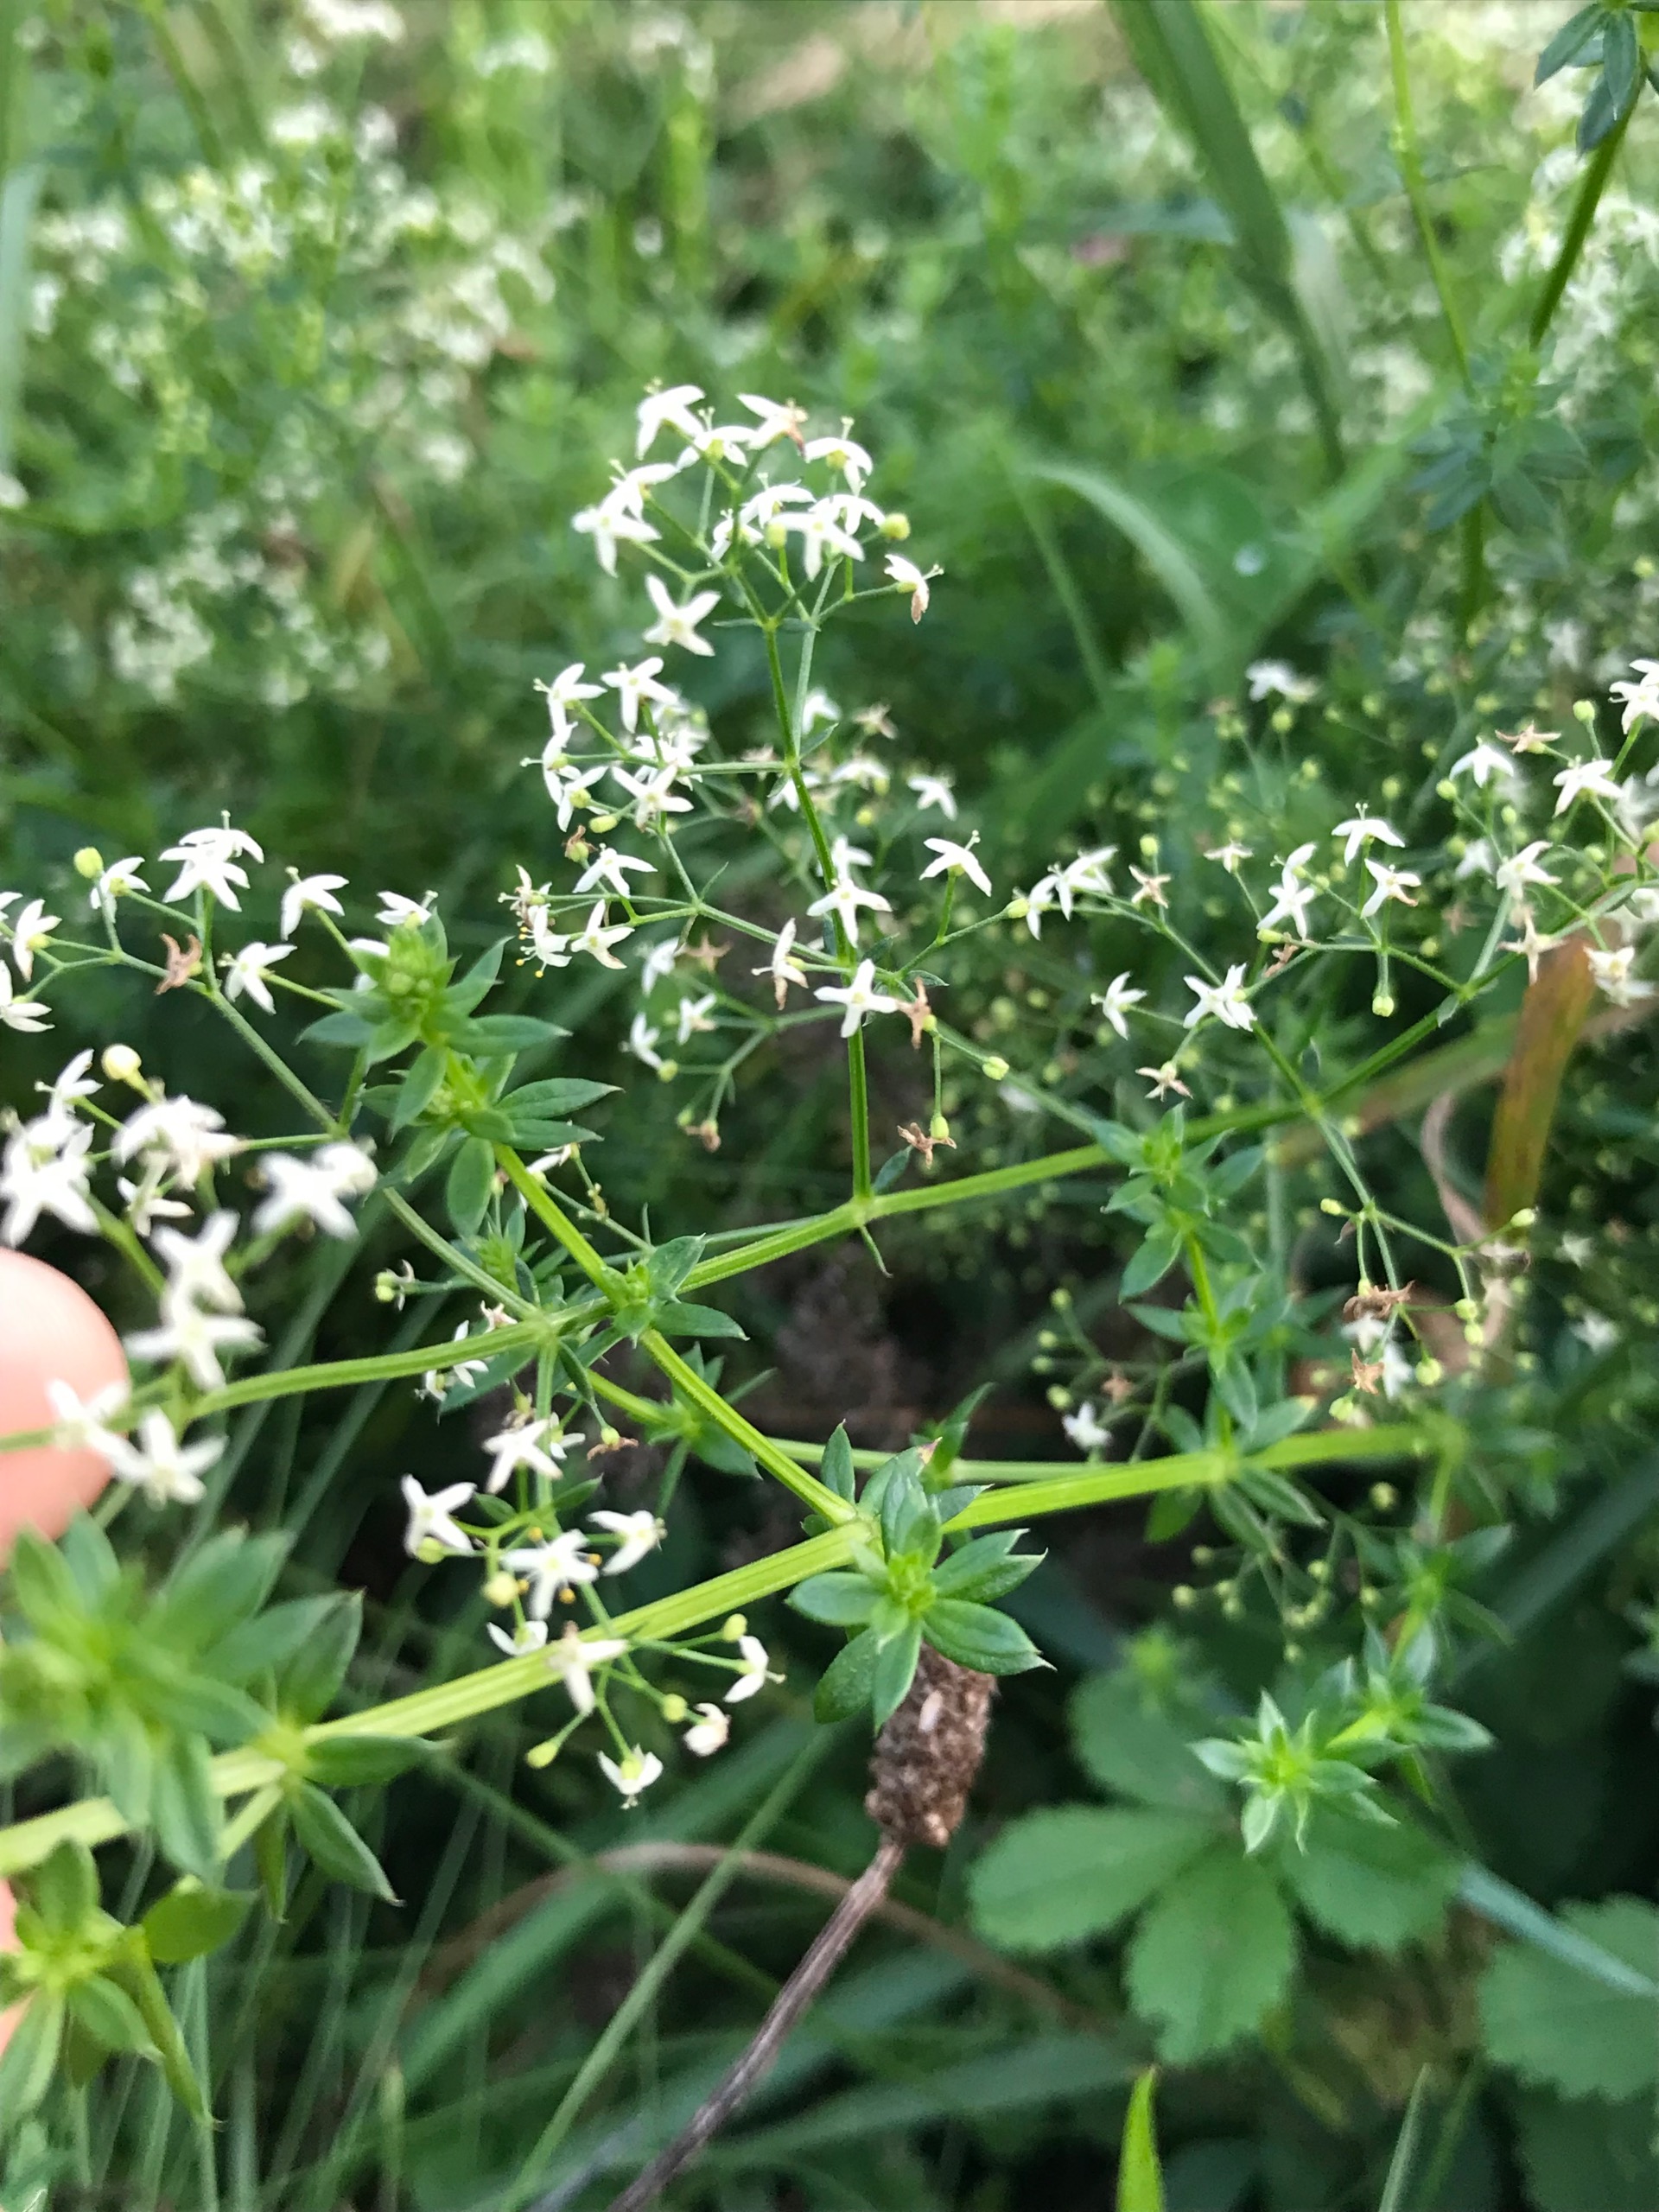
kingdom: Plantae
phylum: Tracheophyta
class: Magnoliopsida
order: Gentianales
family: Rubiaceae
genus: Galium
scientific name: Galium mollugo
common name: Hvid snerre
